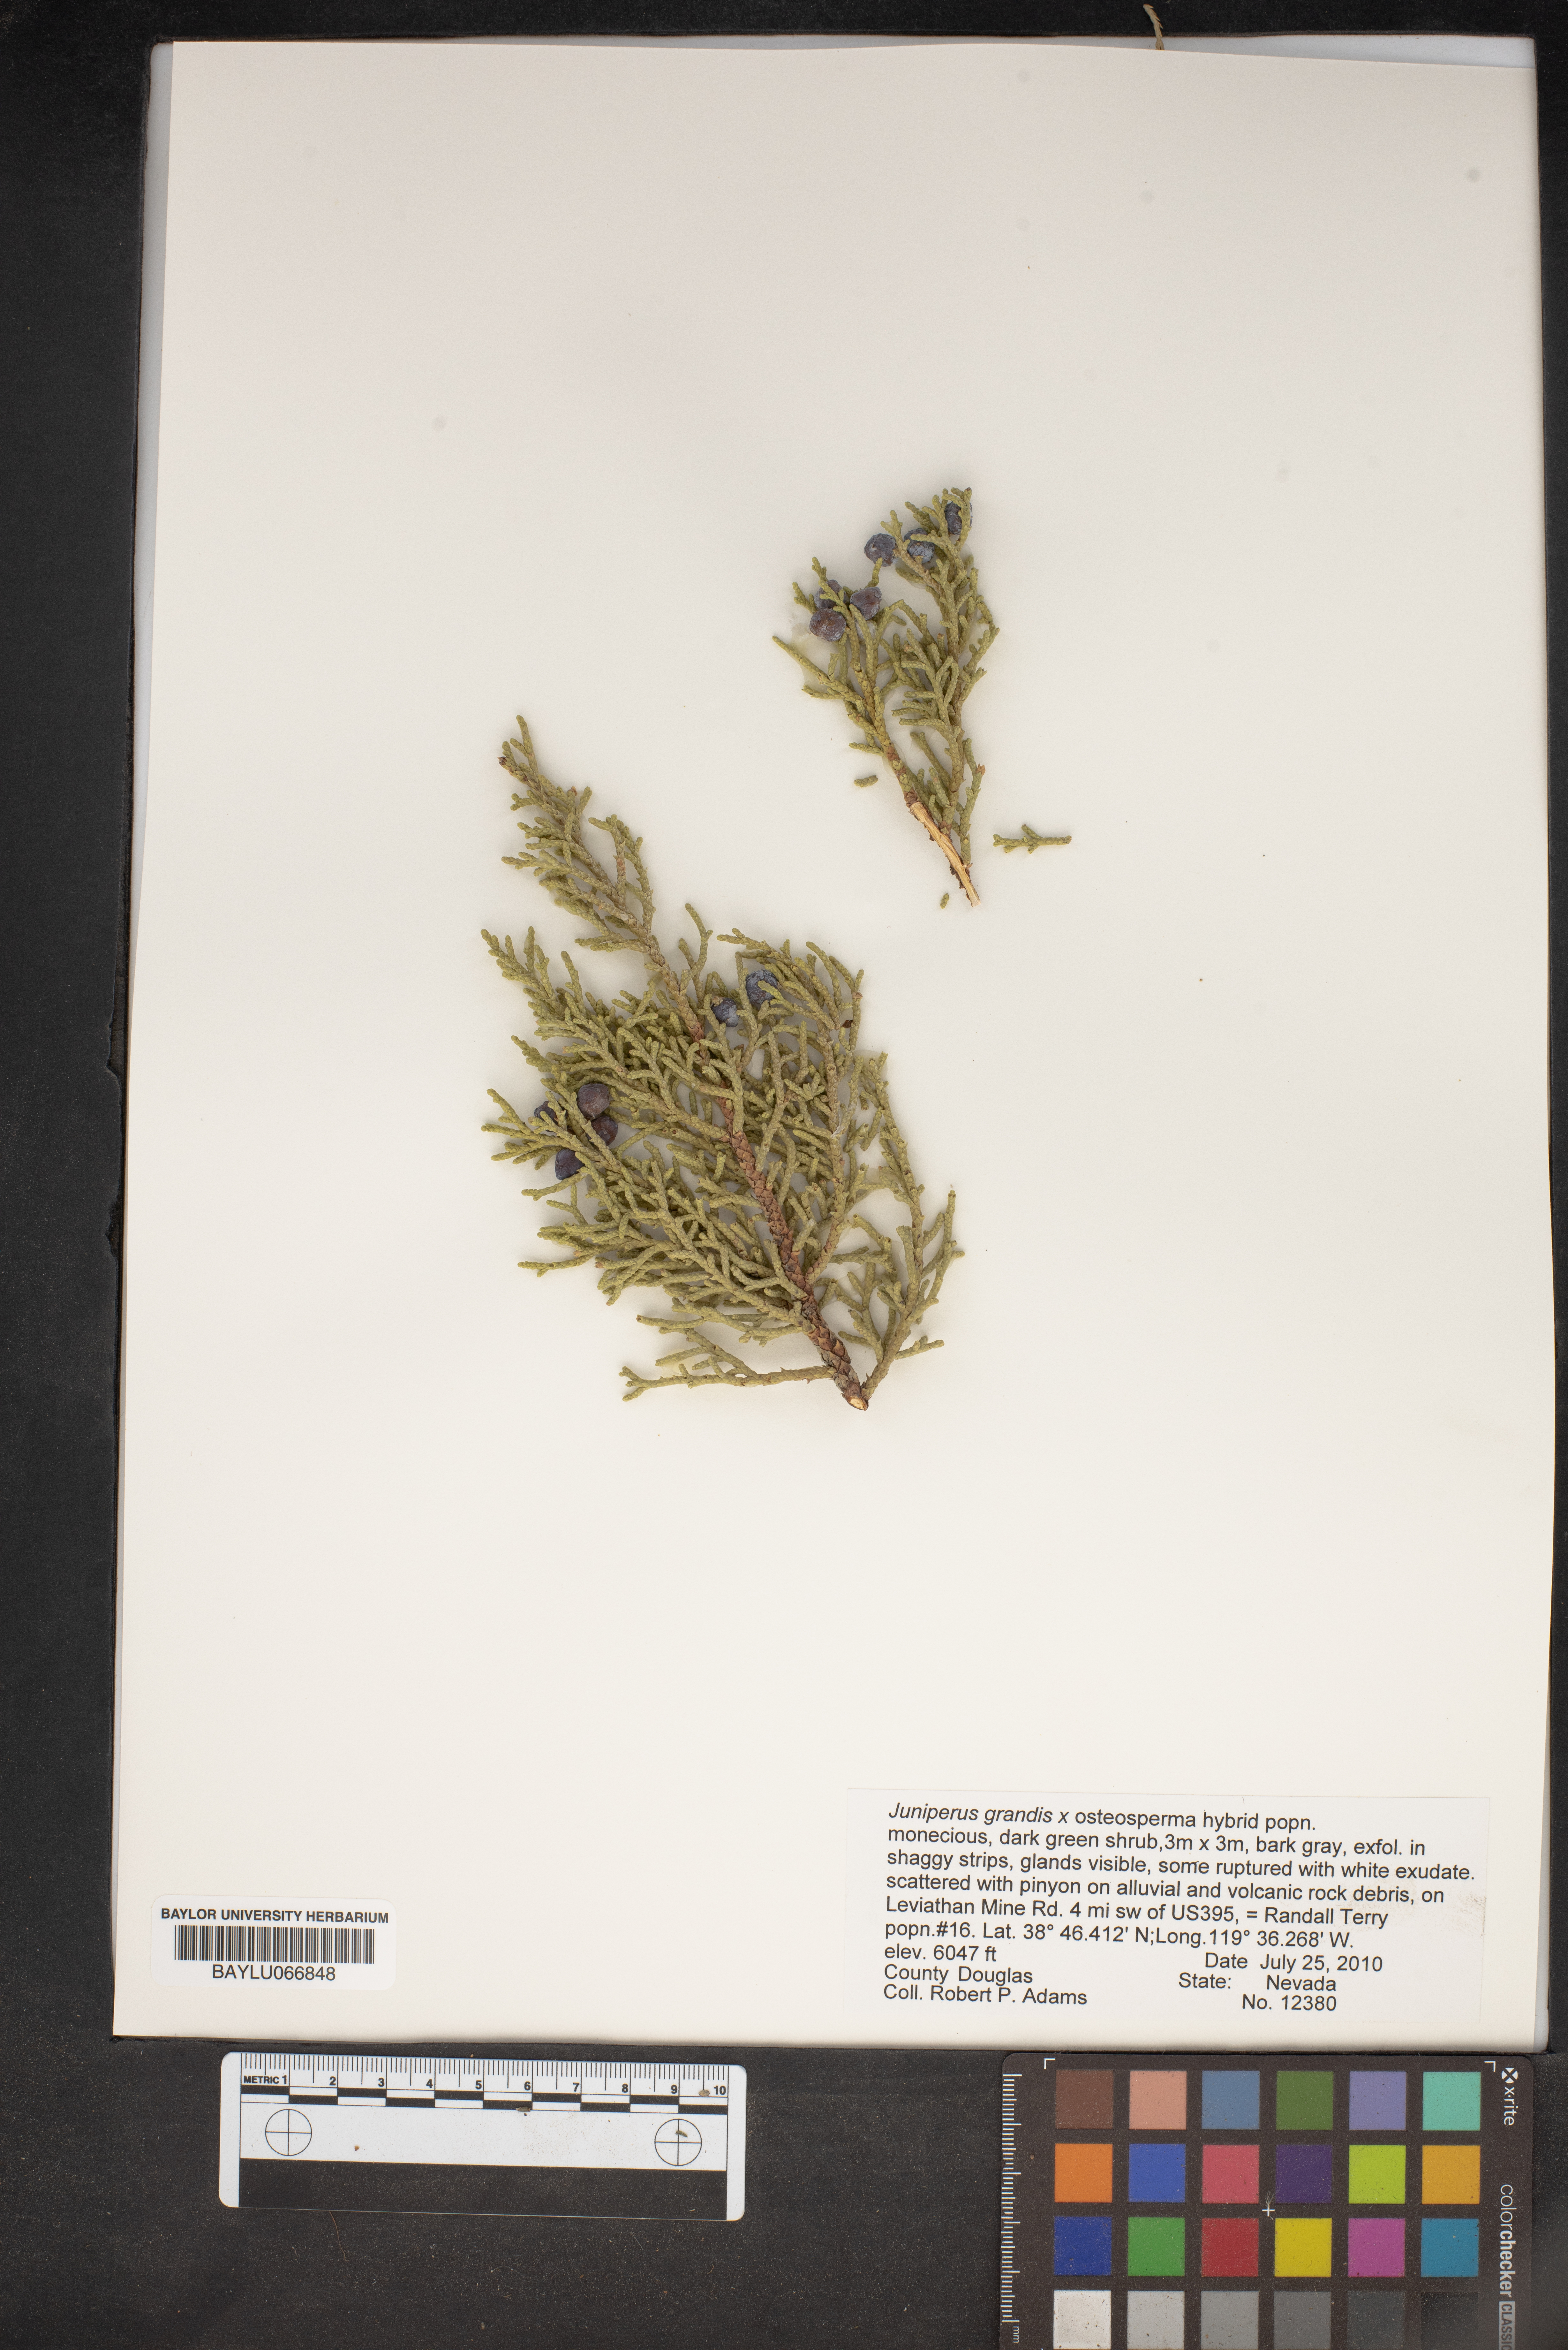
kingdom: Plantae
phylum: Tracheophyta
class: Pinopsida
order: Pinales
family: Cupressaceae
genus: Juniperus
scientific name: Juniperus occidentalis
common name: Western juniper
